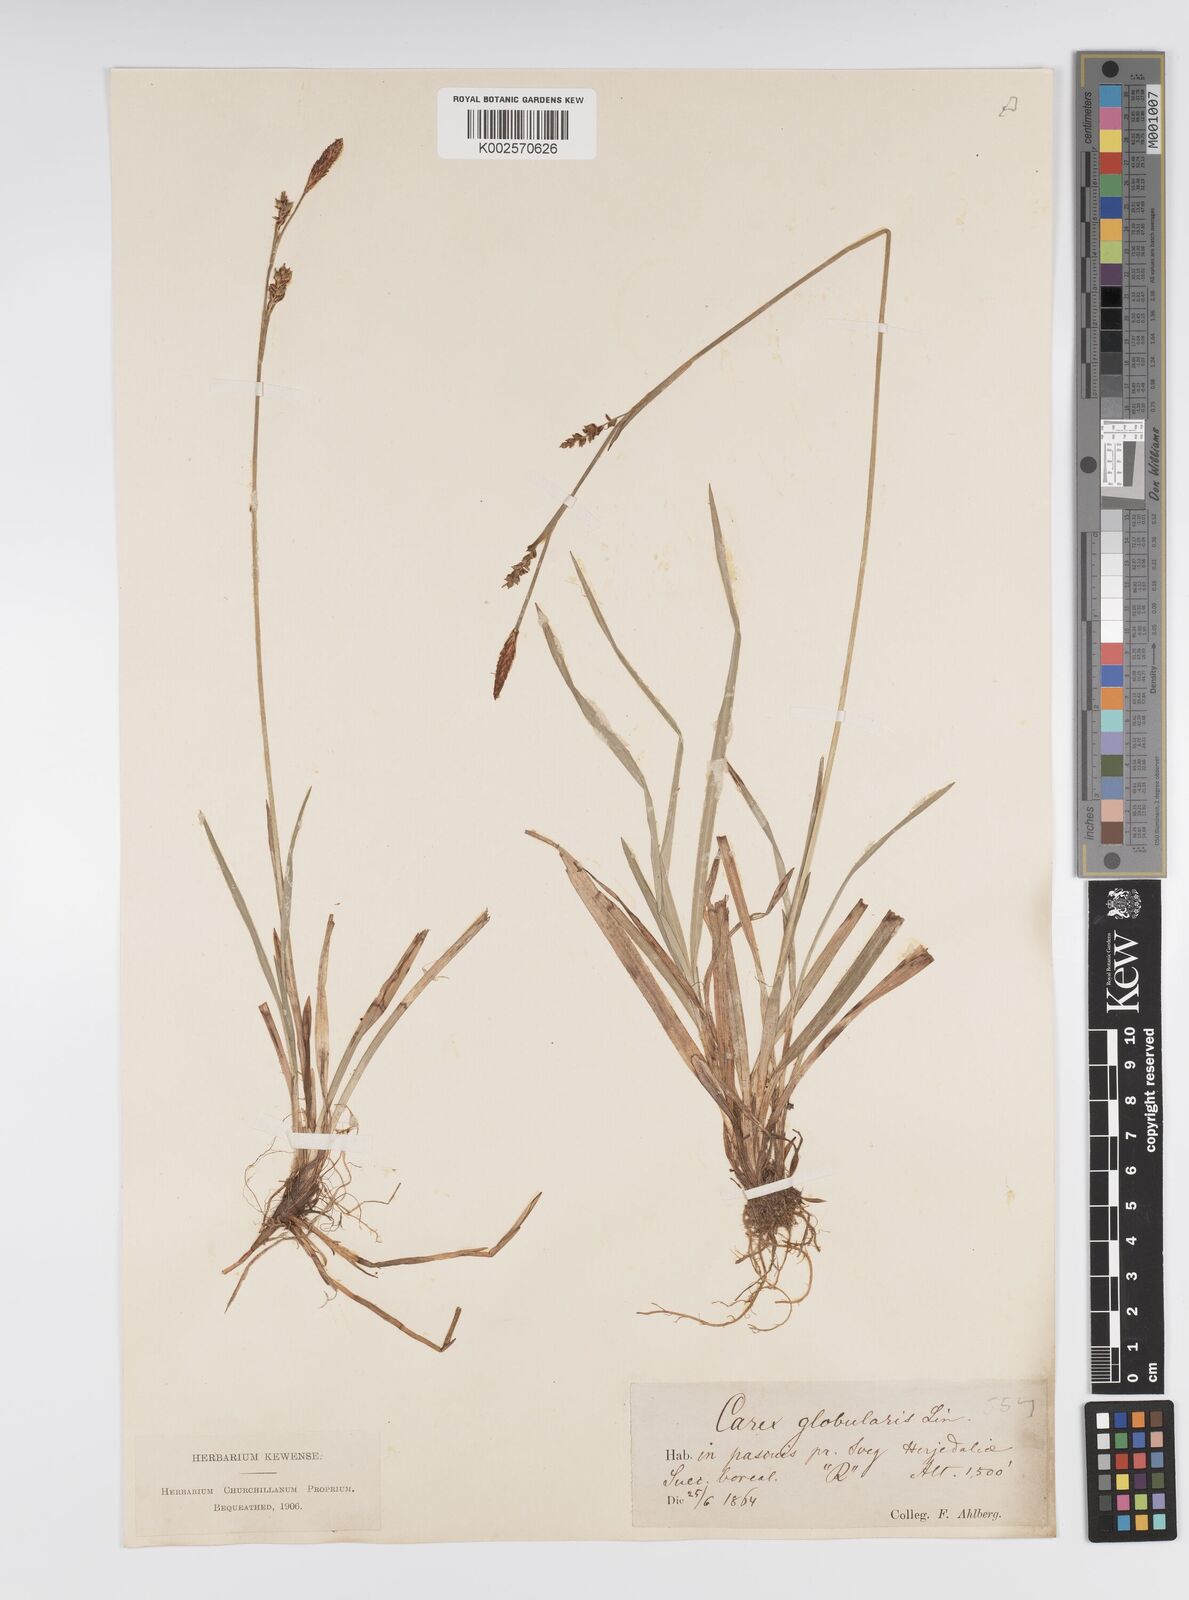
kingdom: Plantae
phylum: Tracheophyta
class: Liliopsida
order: Poales
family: Cyperaceae
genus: Carex
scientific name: Carex globularis
